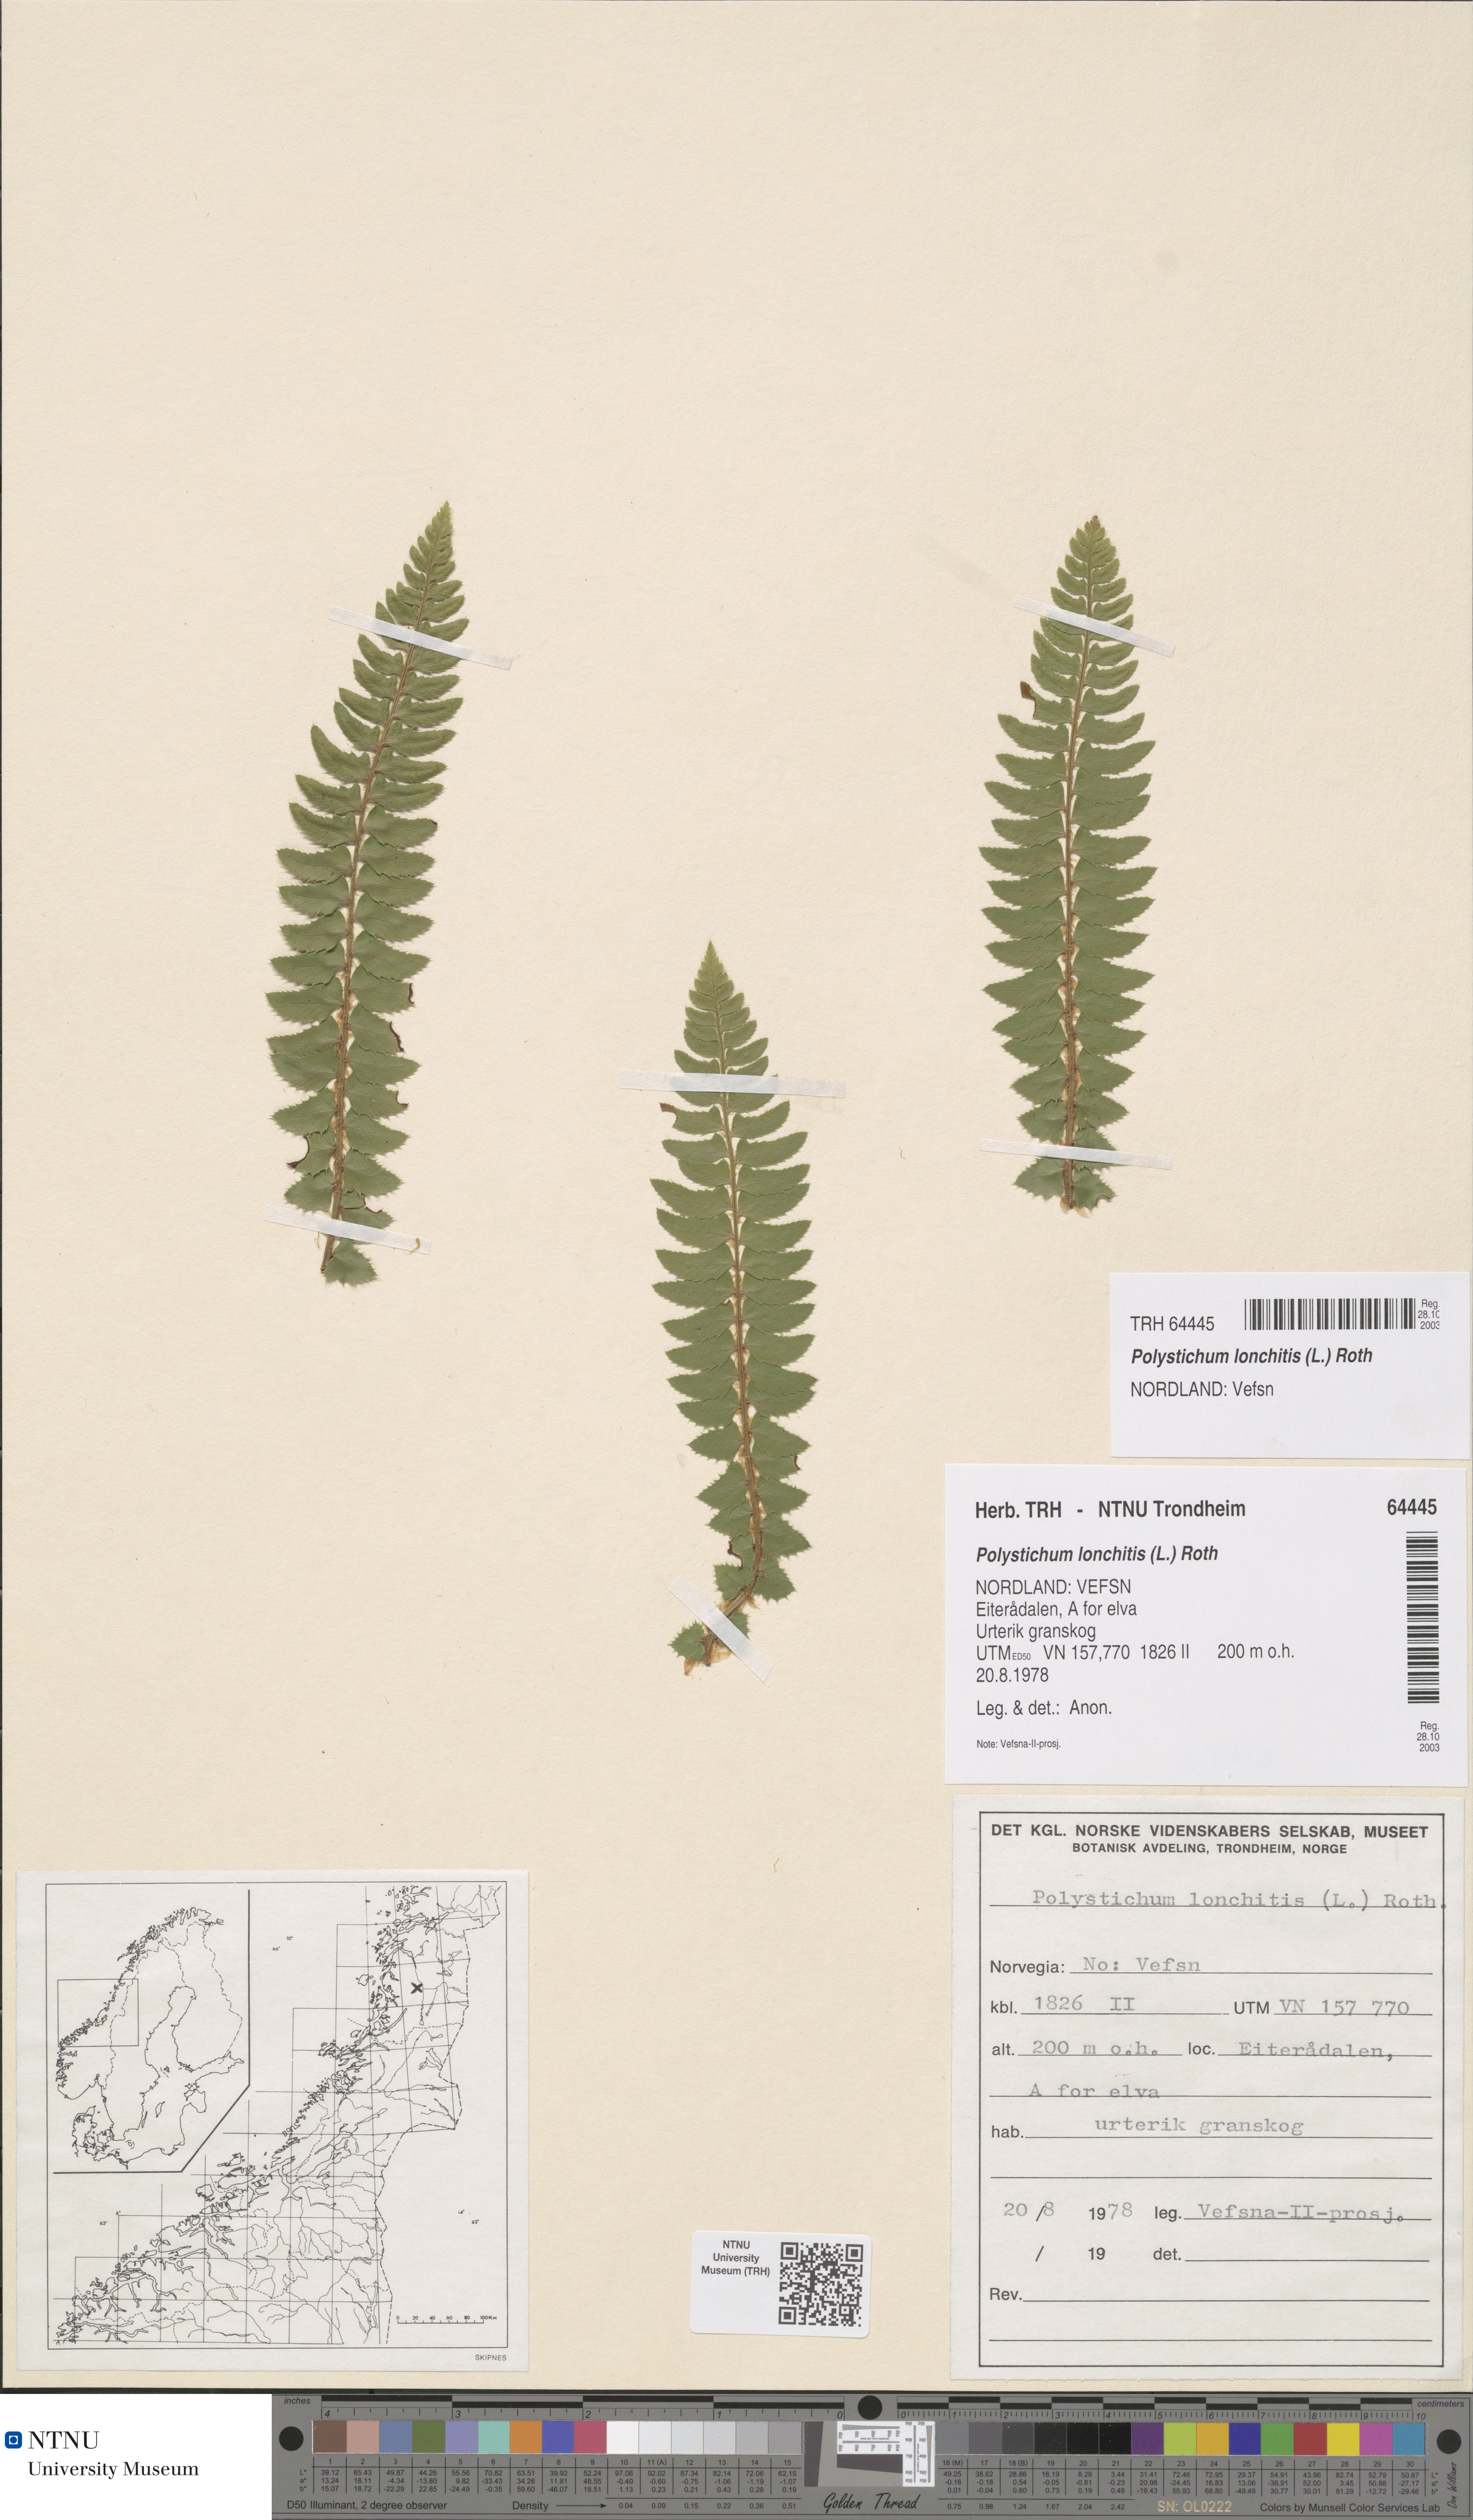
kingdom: Plantae
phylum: Tracheophyta
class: Polypodiopsida
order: Polypodiales
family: Dryopteridaceae
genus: Polystichum
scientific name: Polystichum lonchitis
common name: Holly fern
